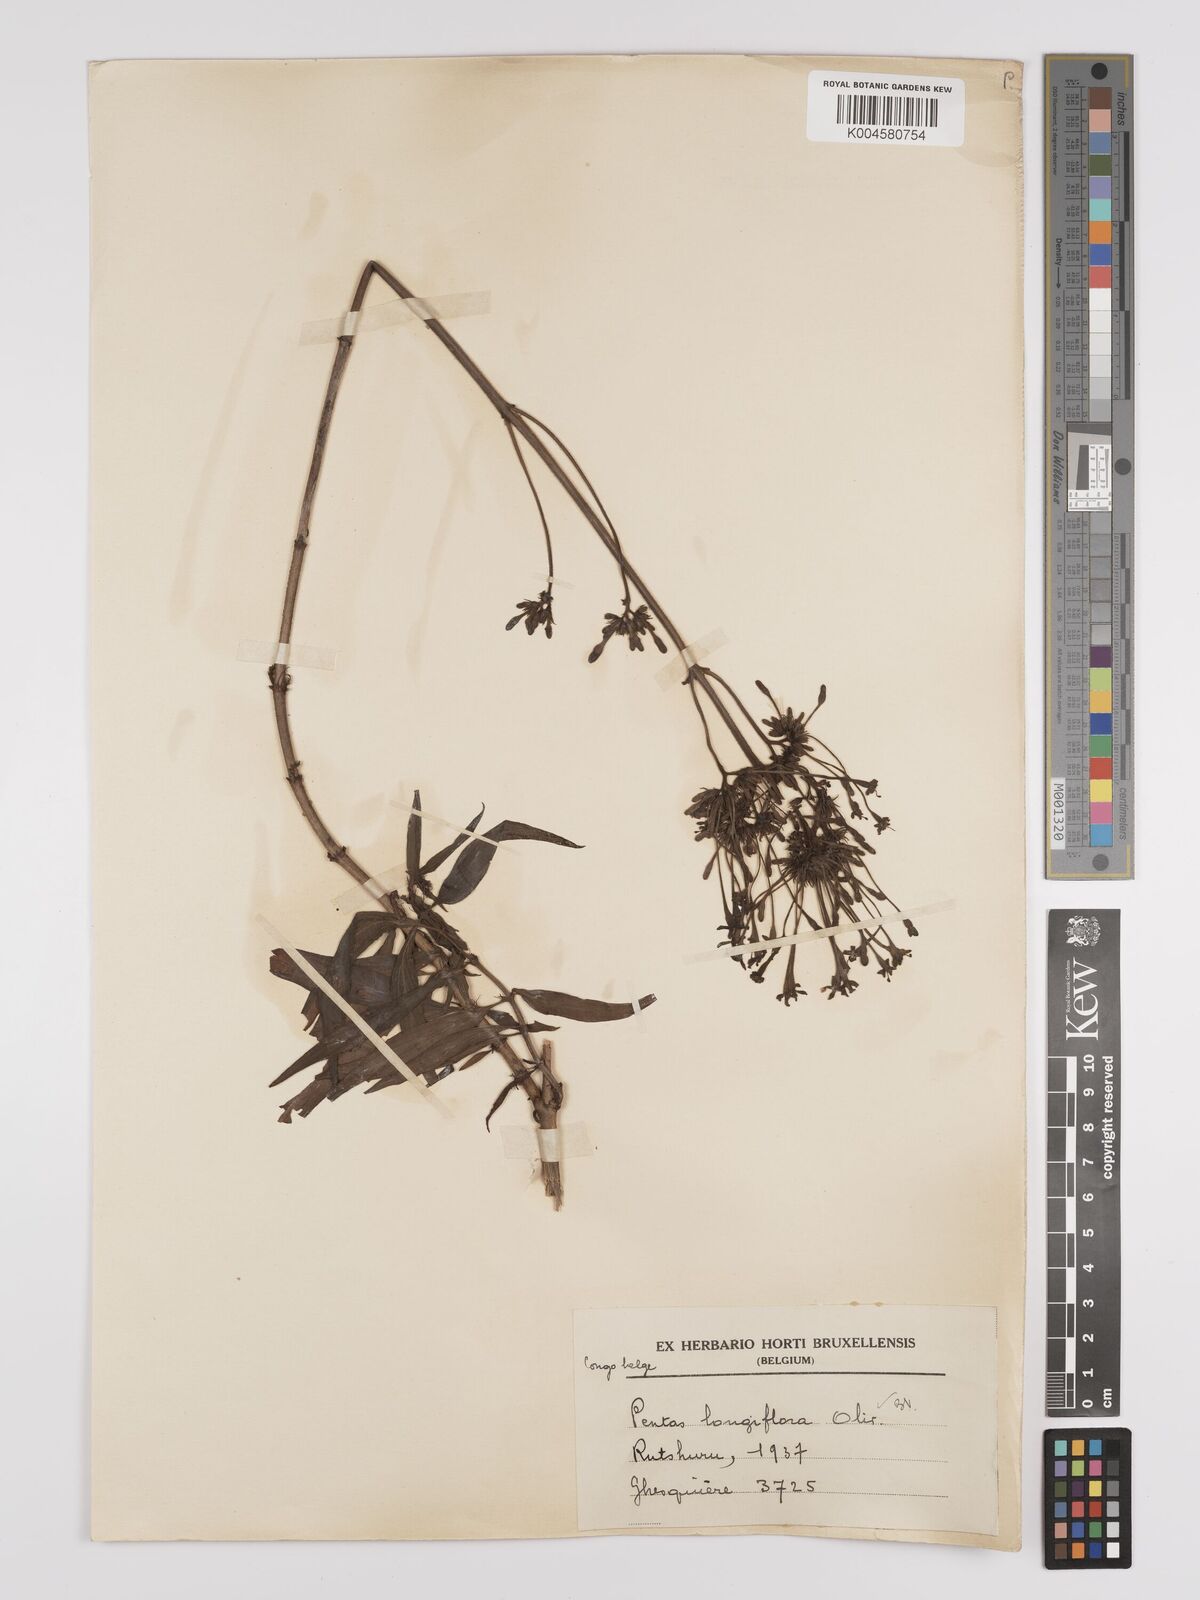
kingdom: Plantae
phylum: Tracheophyta
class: Magnoliopsida
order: Gentianales
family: Rubiaceae
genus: Dolichopentas
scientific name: Dolichopentas longiflora
